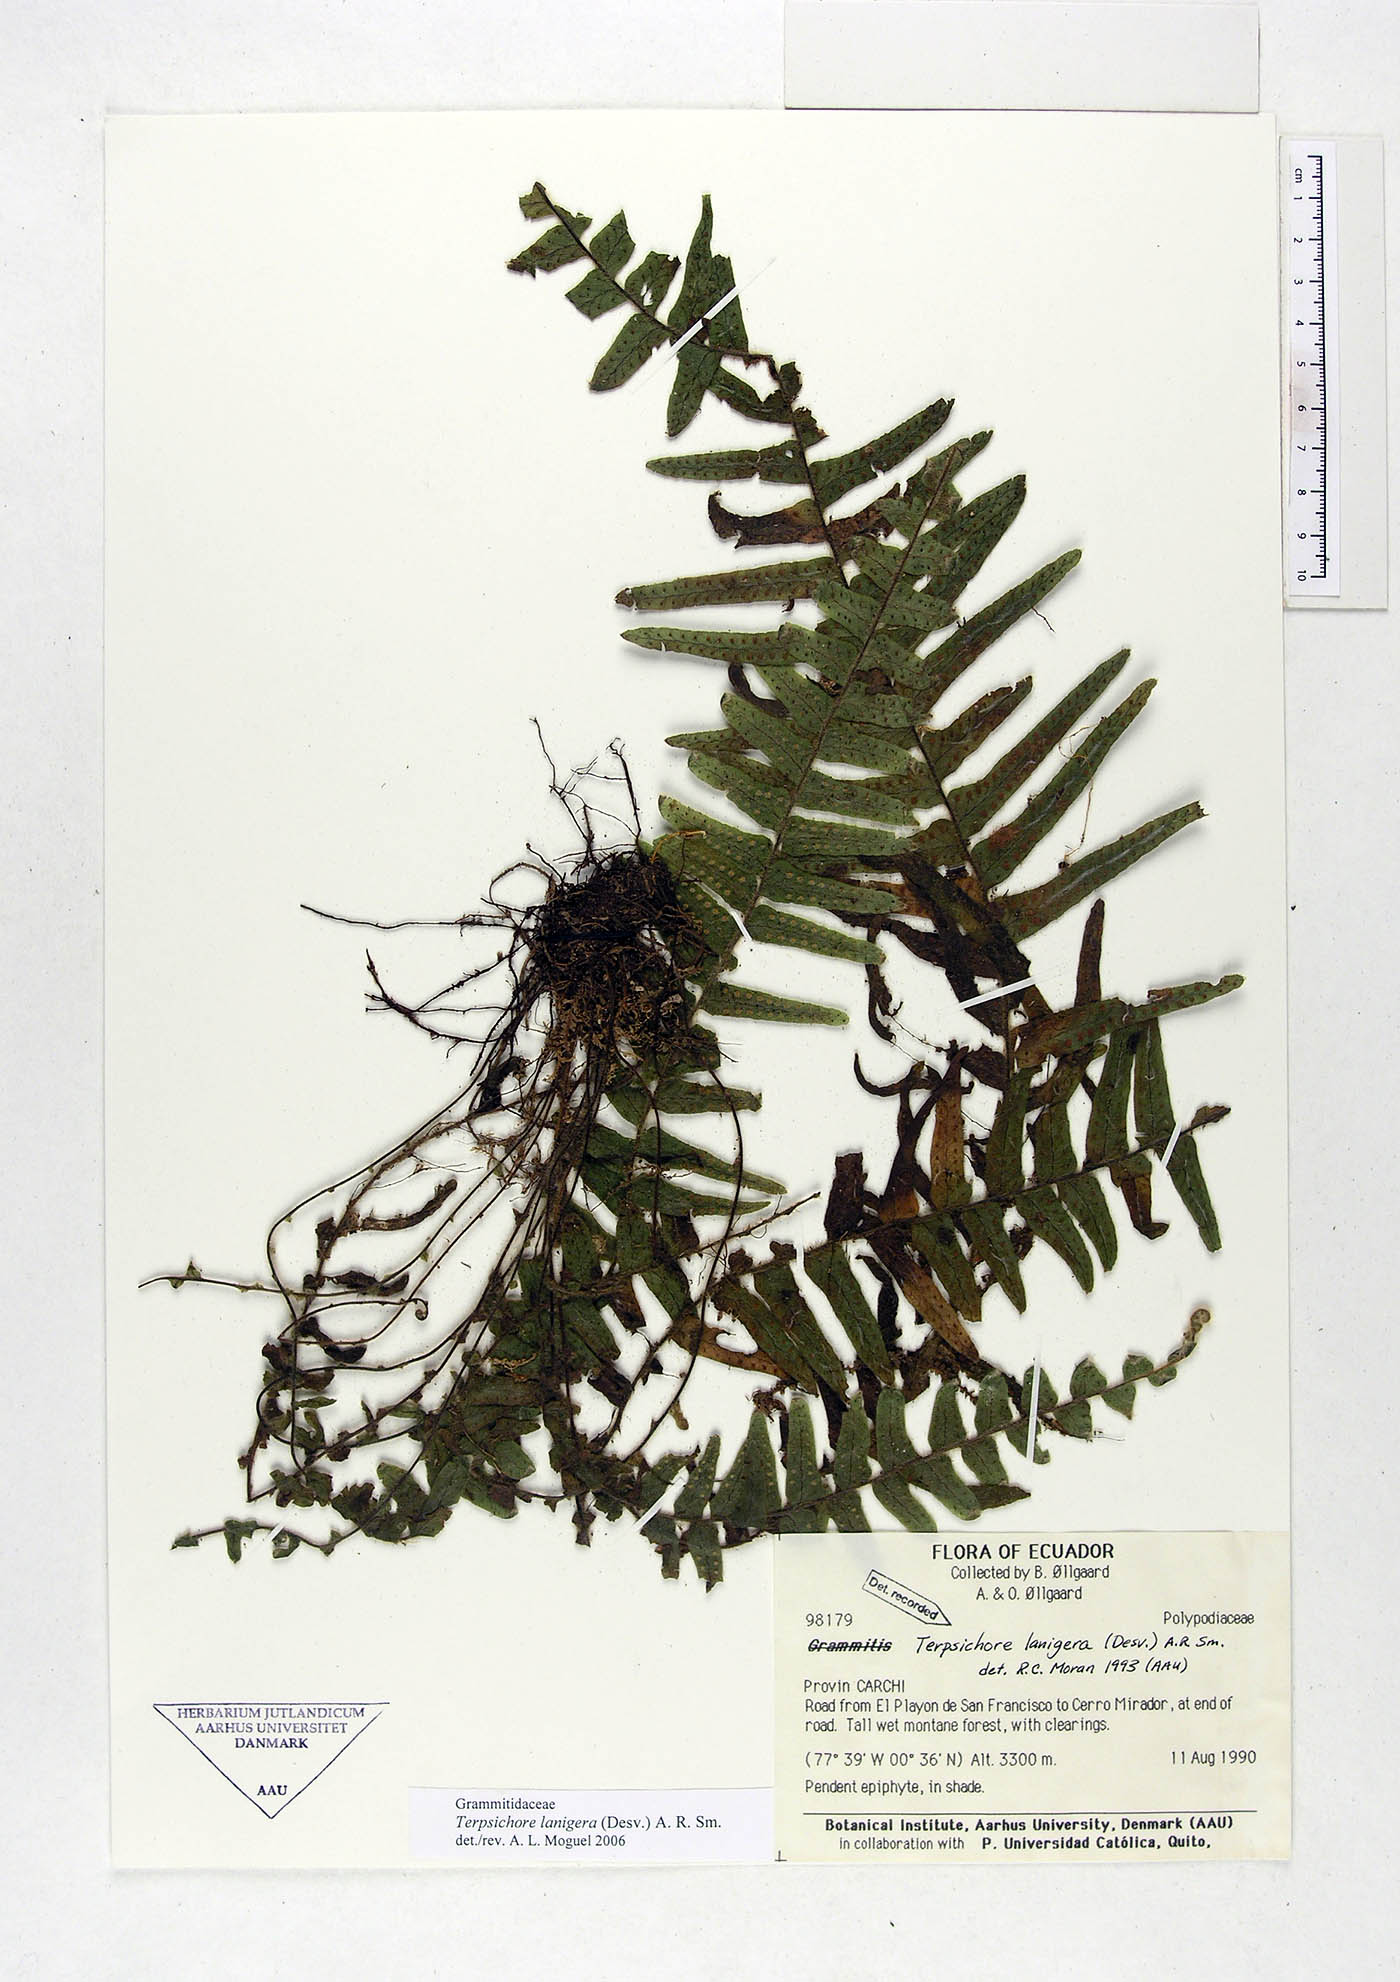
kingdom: Plantae
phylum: Tracheophyta
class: Polypodiopsida
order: Polypodiales
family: Polypodiaceae
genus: Alansmia
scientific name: Alansmia lanigera
